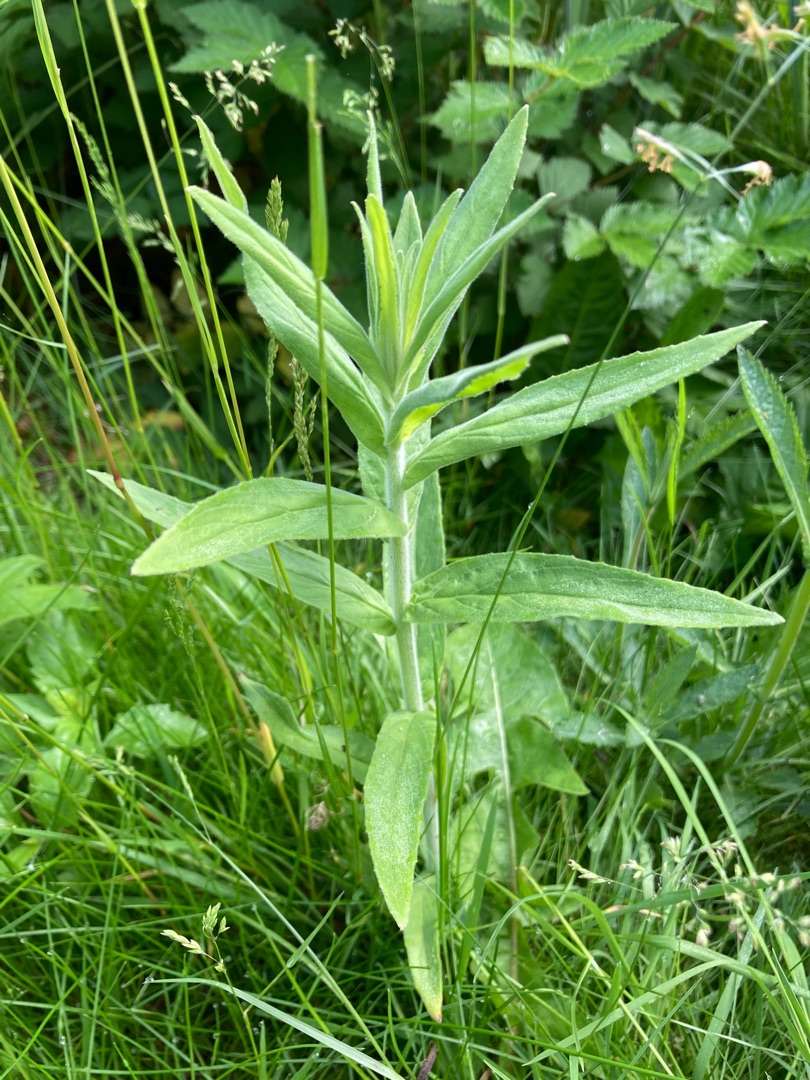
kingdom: Plantae
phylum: Tracheophyta
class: Magnoliopsida
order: Myrtales
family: Onagraceae
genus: Epilobium
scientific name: Epilobium parviflorum
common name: Dunet dueurt
